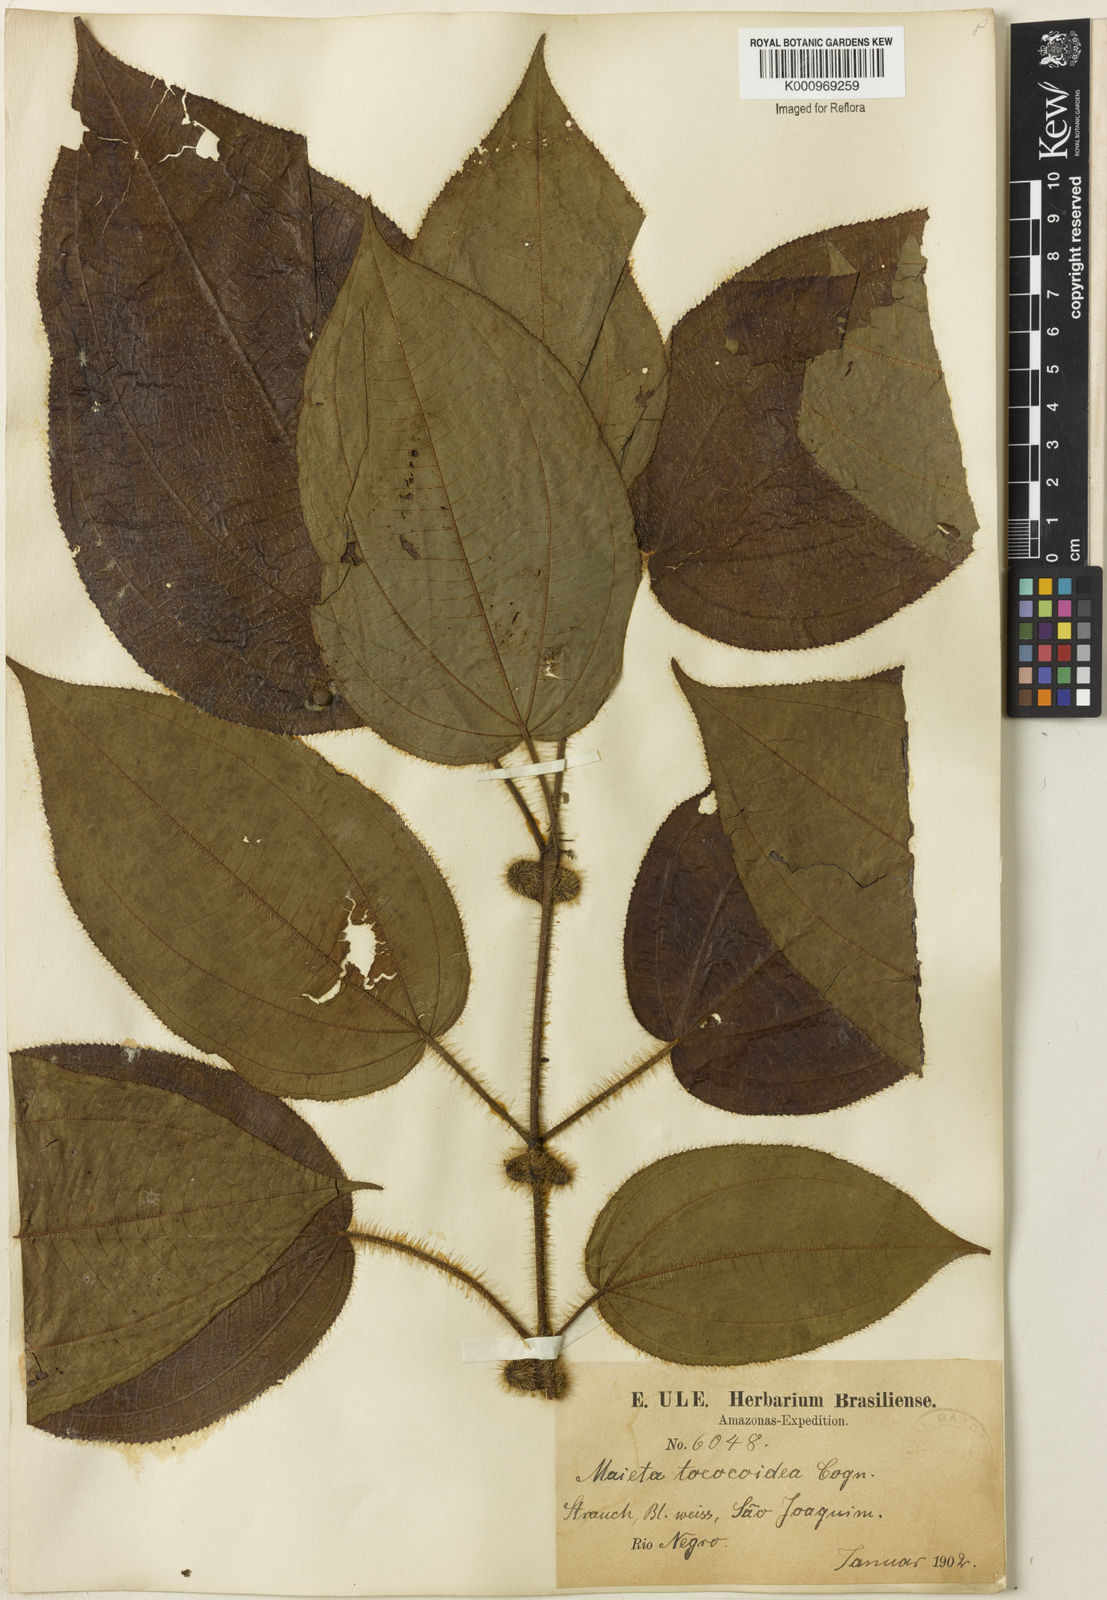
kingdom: Plantae
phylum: Tracheophyta
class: Magnoliopsida
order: Myrtales
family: Melastomataceae
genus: Miconia
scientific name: Miconia tococoidea
